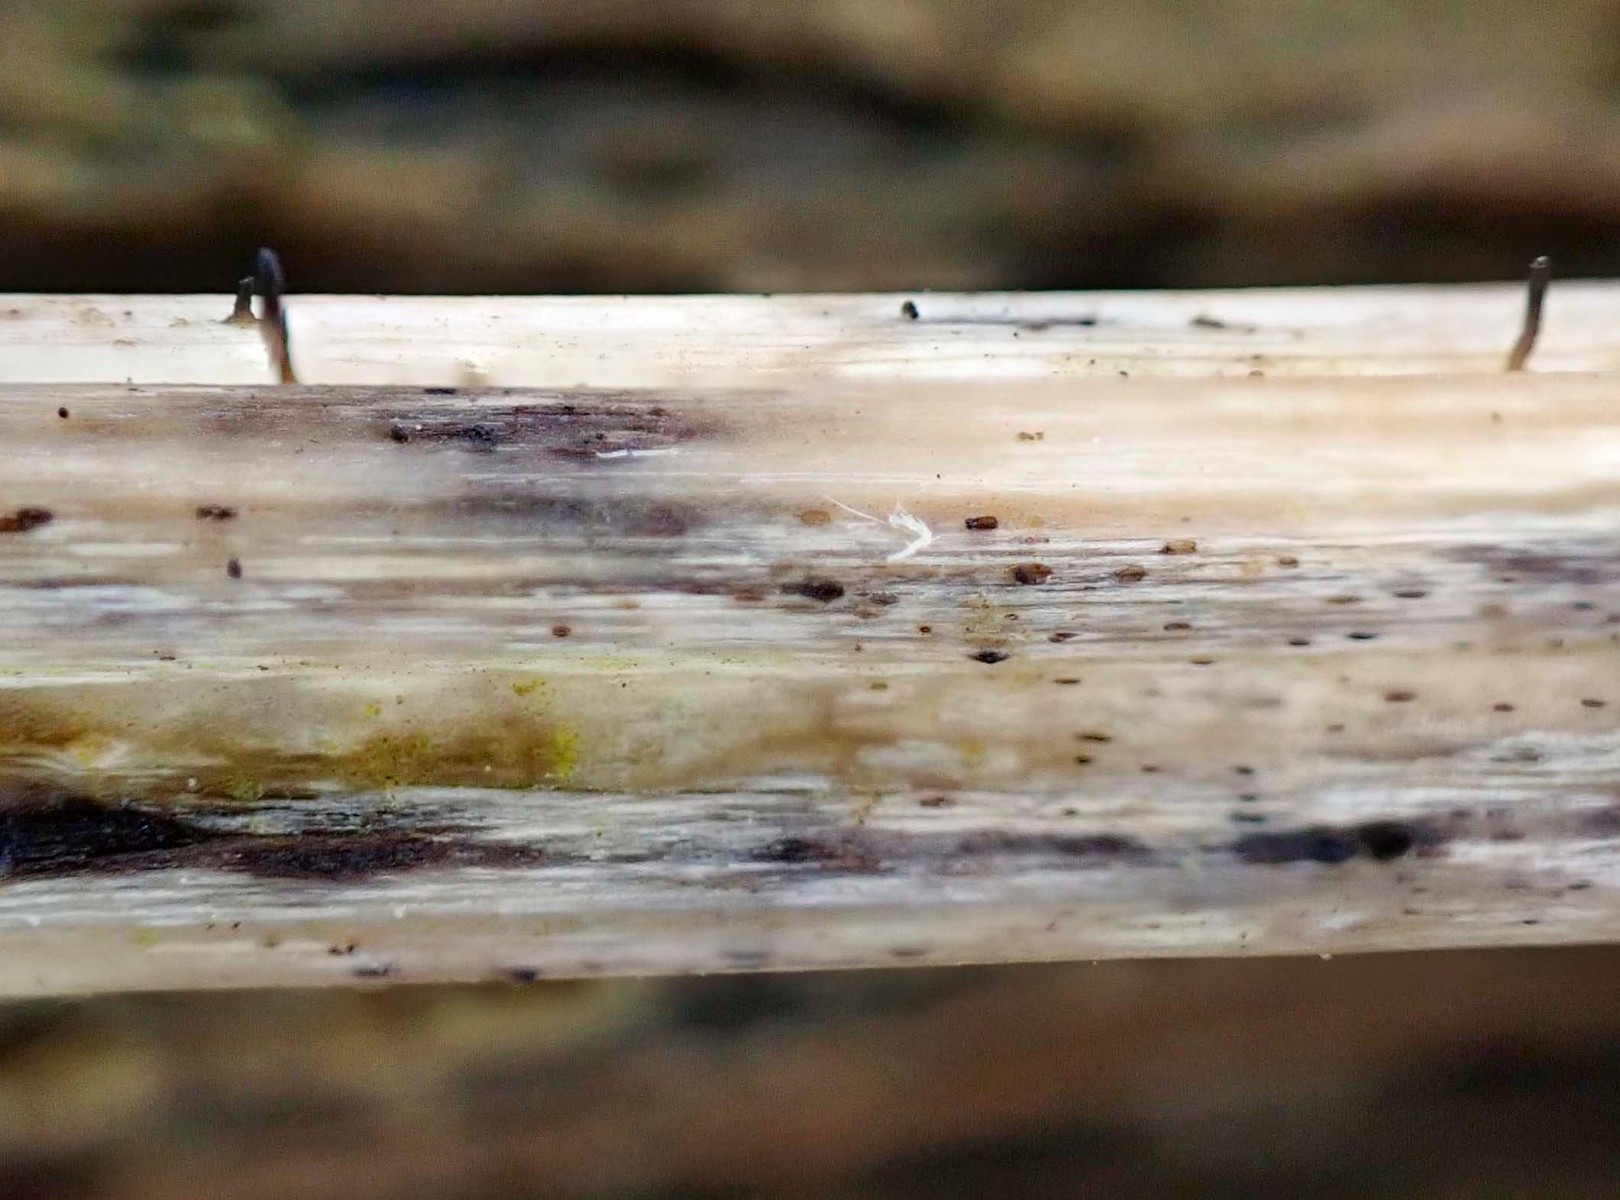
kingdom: Fungi
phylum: Ascomycota
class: Dothideomycetes
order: Acrospermales
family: Acrospermaceae
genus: Acrospermum
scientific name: Acrospermum compressum
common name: nælde-stængeltunge
